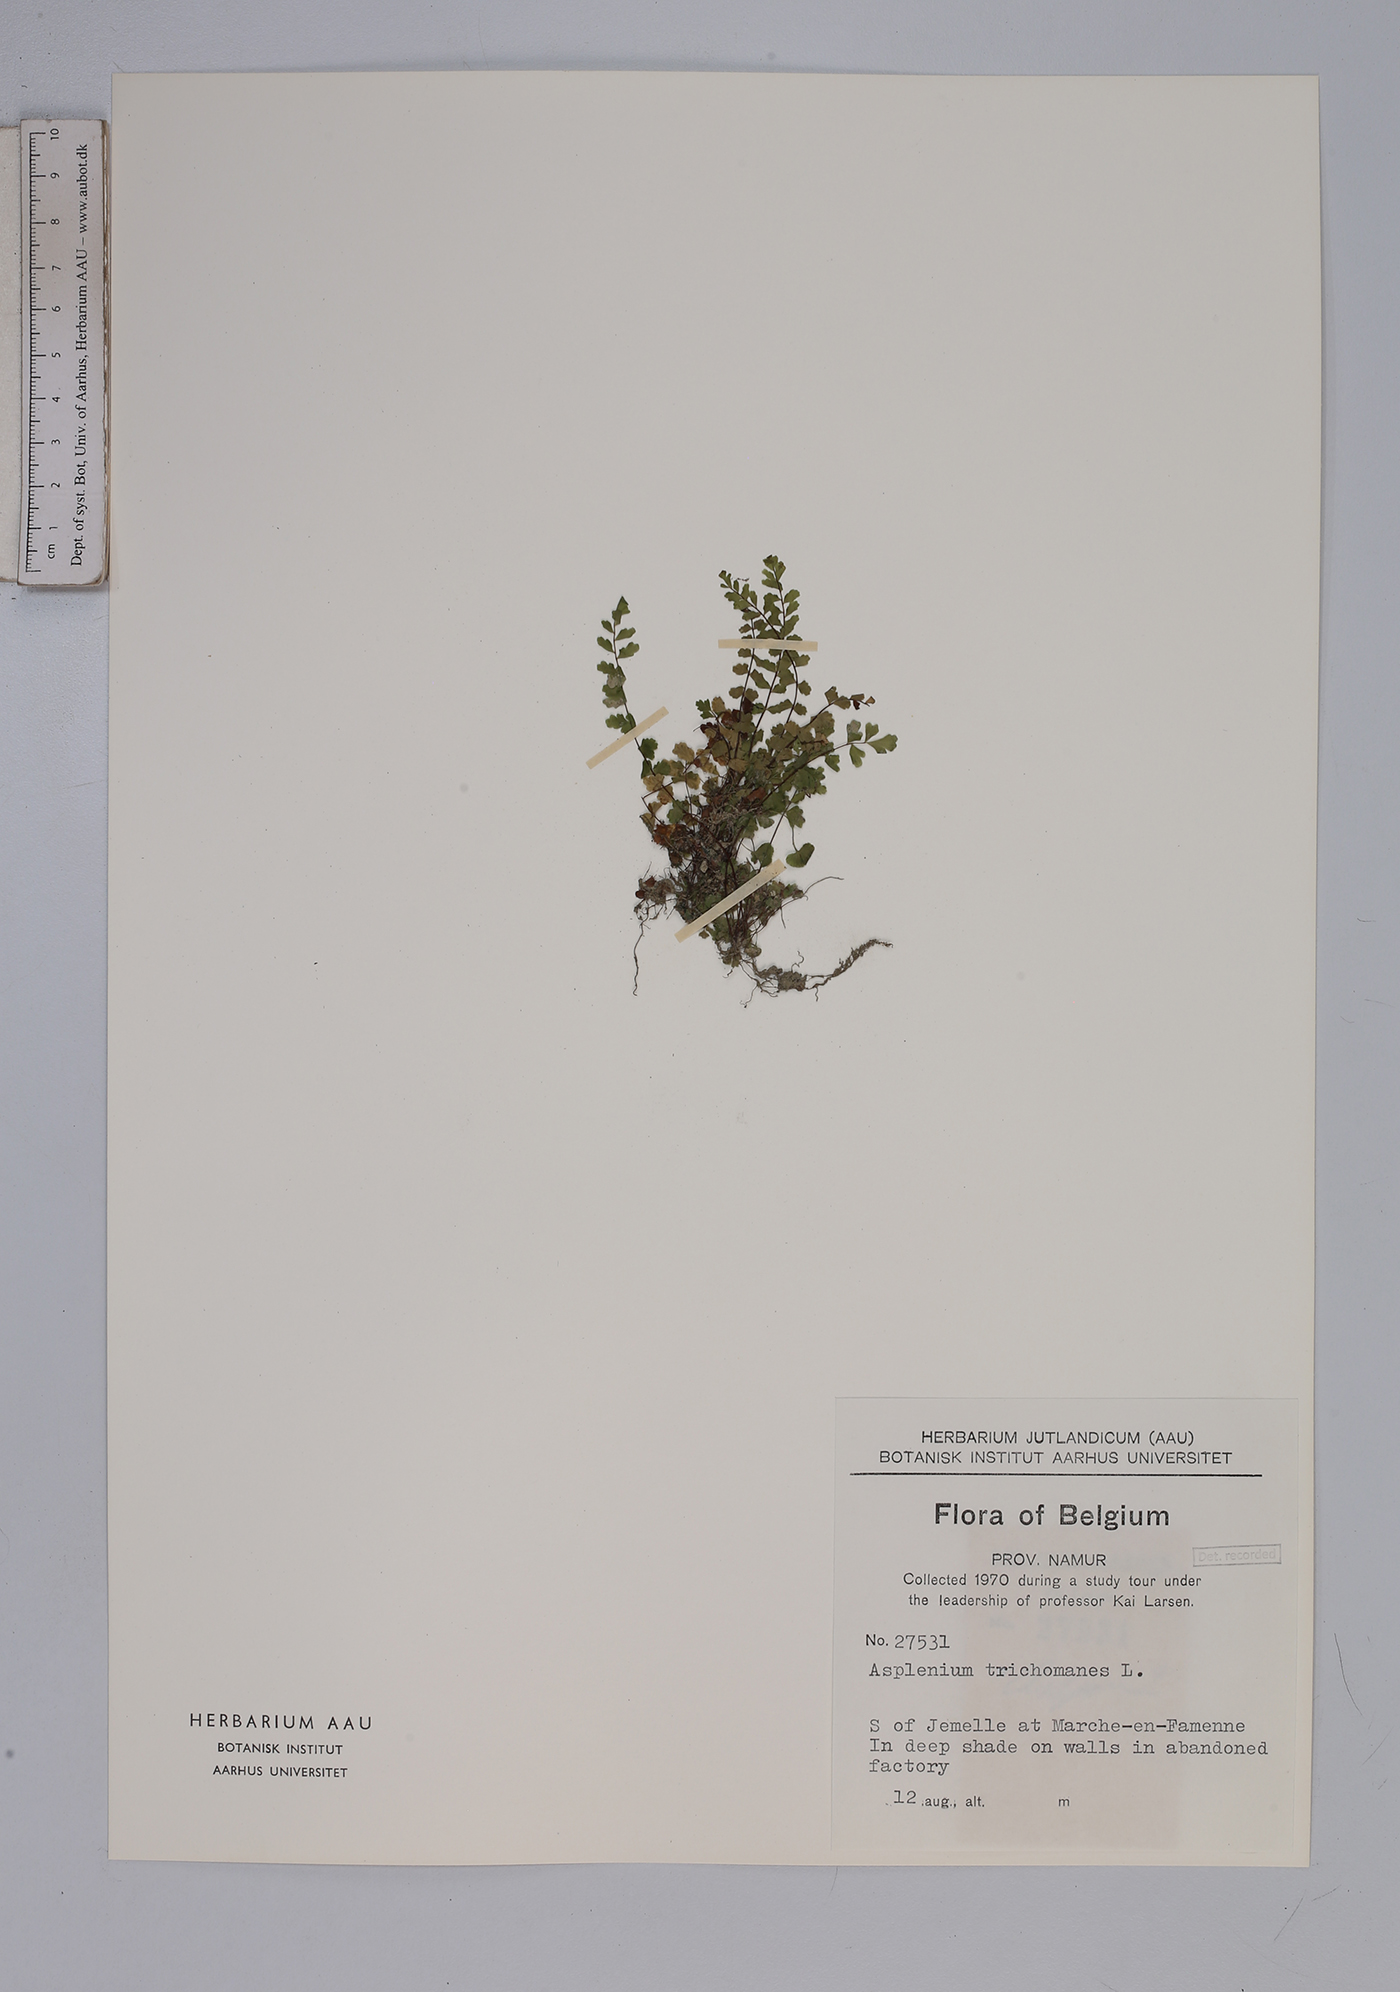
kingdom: Plantae
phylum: Tracheophyta
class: Polypodiopsida
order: Polypodiales
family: Aspleniaceae
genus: Asplenium
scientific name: Asplenium trichomanes
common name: Maidenhair spleenwort
